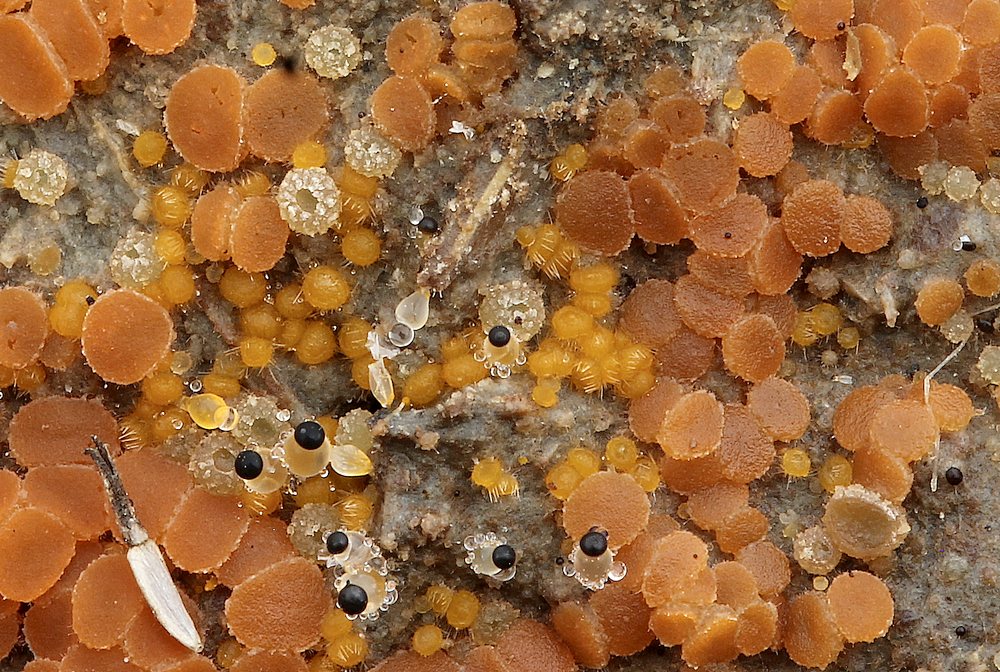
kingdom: Fungi
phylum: Ascomycota
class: Pezizomycetes
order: Pezizales
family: Pyronemataceae
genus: Cheilymenia
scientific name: Cheilymenia granulata
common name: møgbæger
